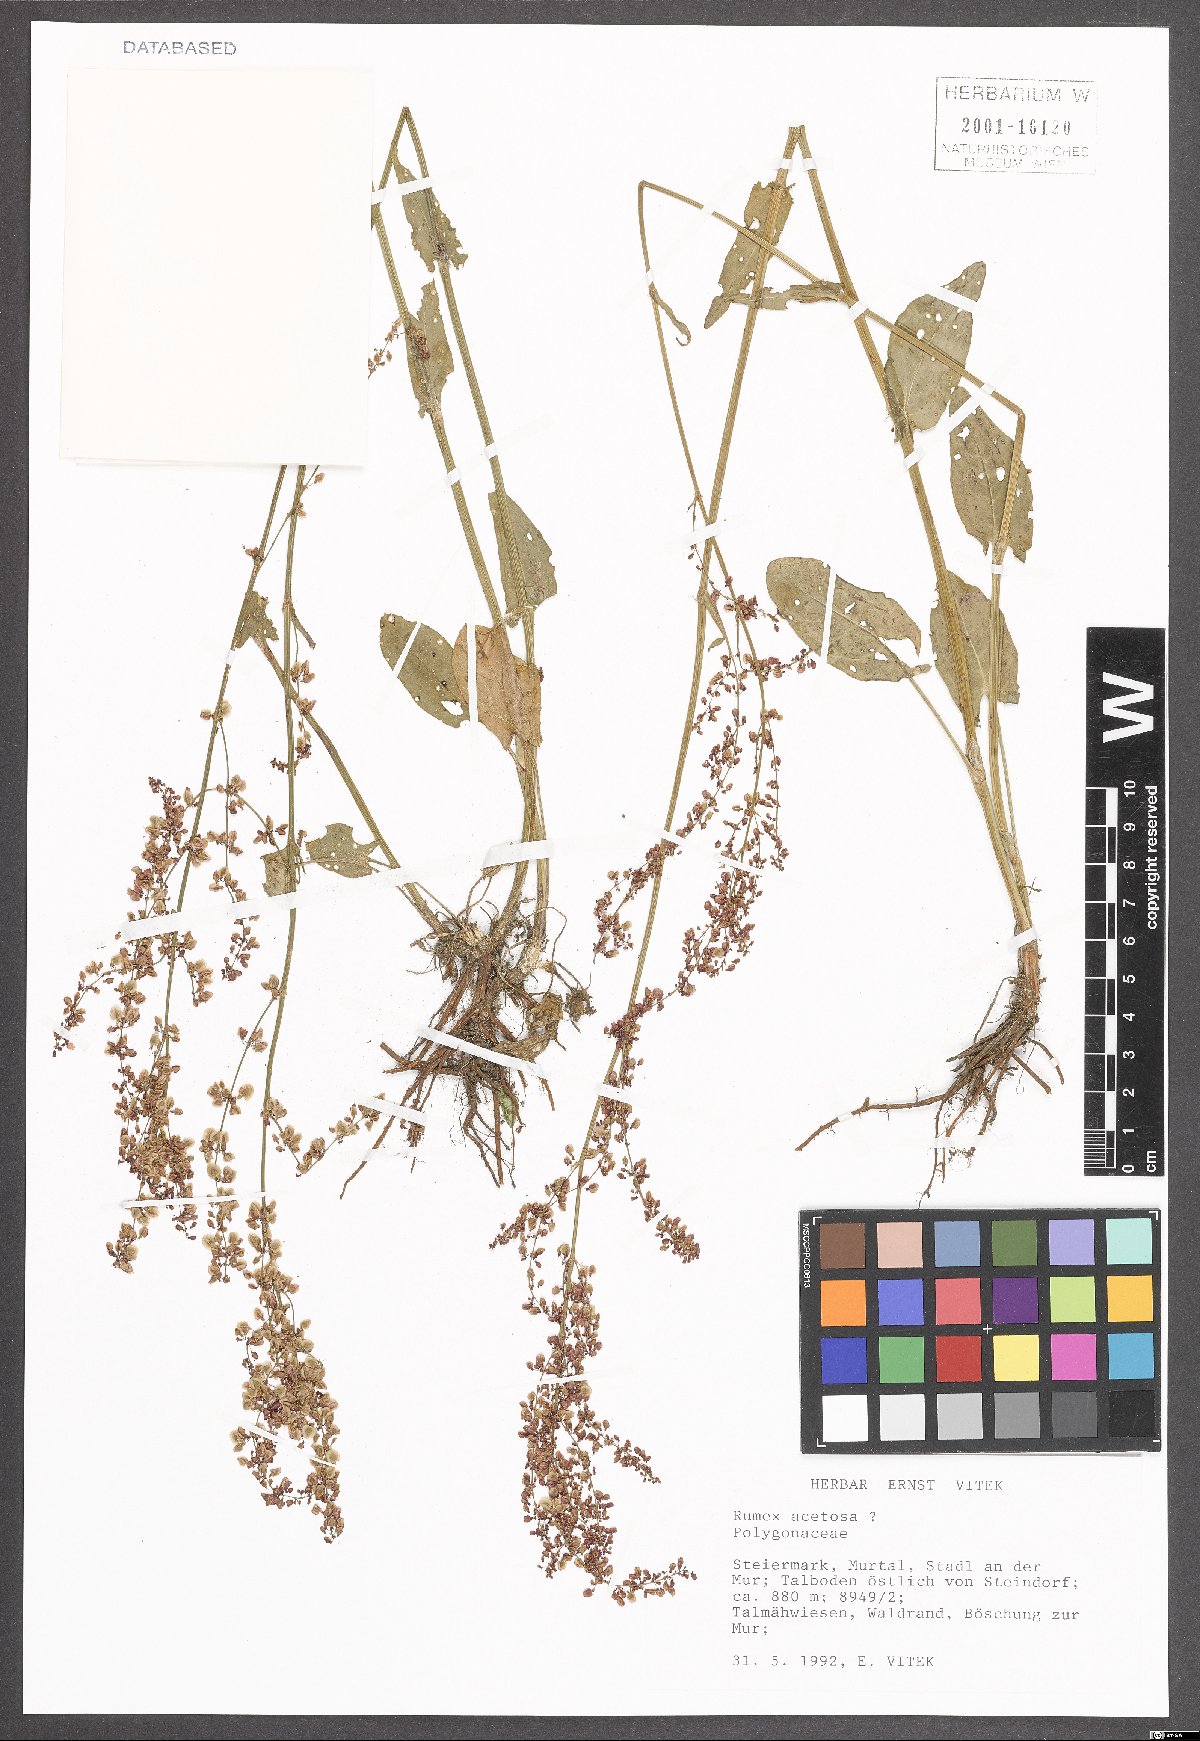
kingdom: Plantae
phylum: Tracheophyta
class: Magnoliopsida
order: Caryophyllales
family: Polygonaceae
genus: Rumex
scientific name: Rumex acetosa
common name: Garden sorrel
